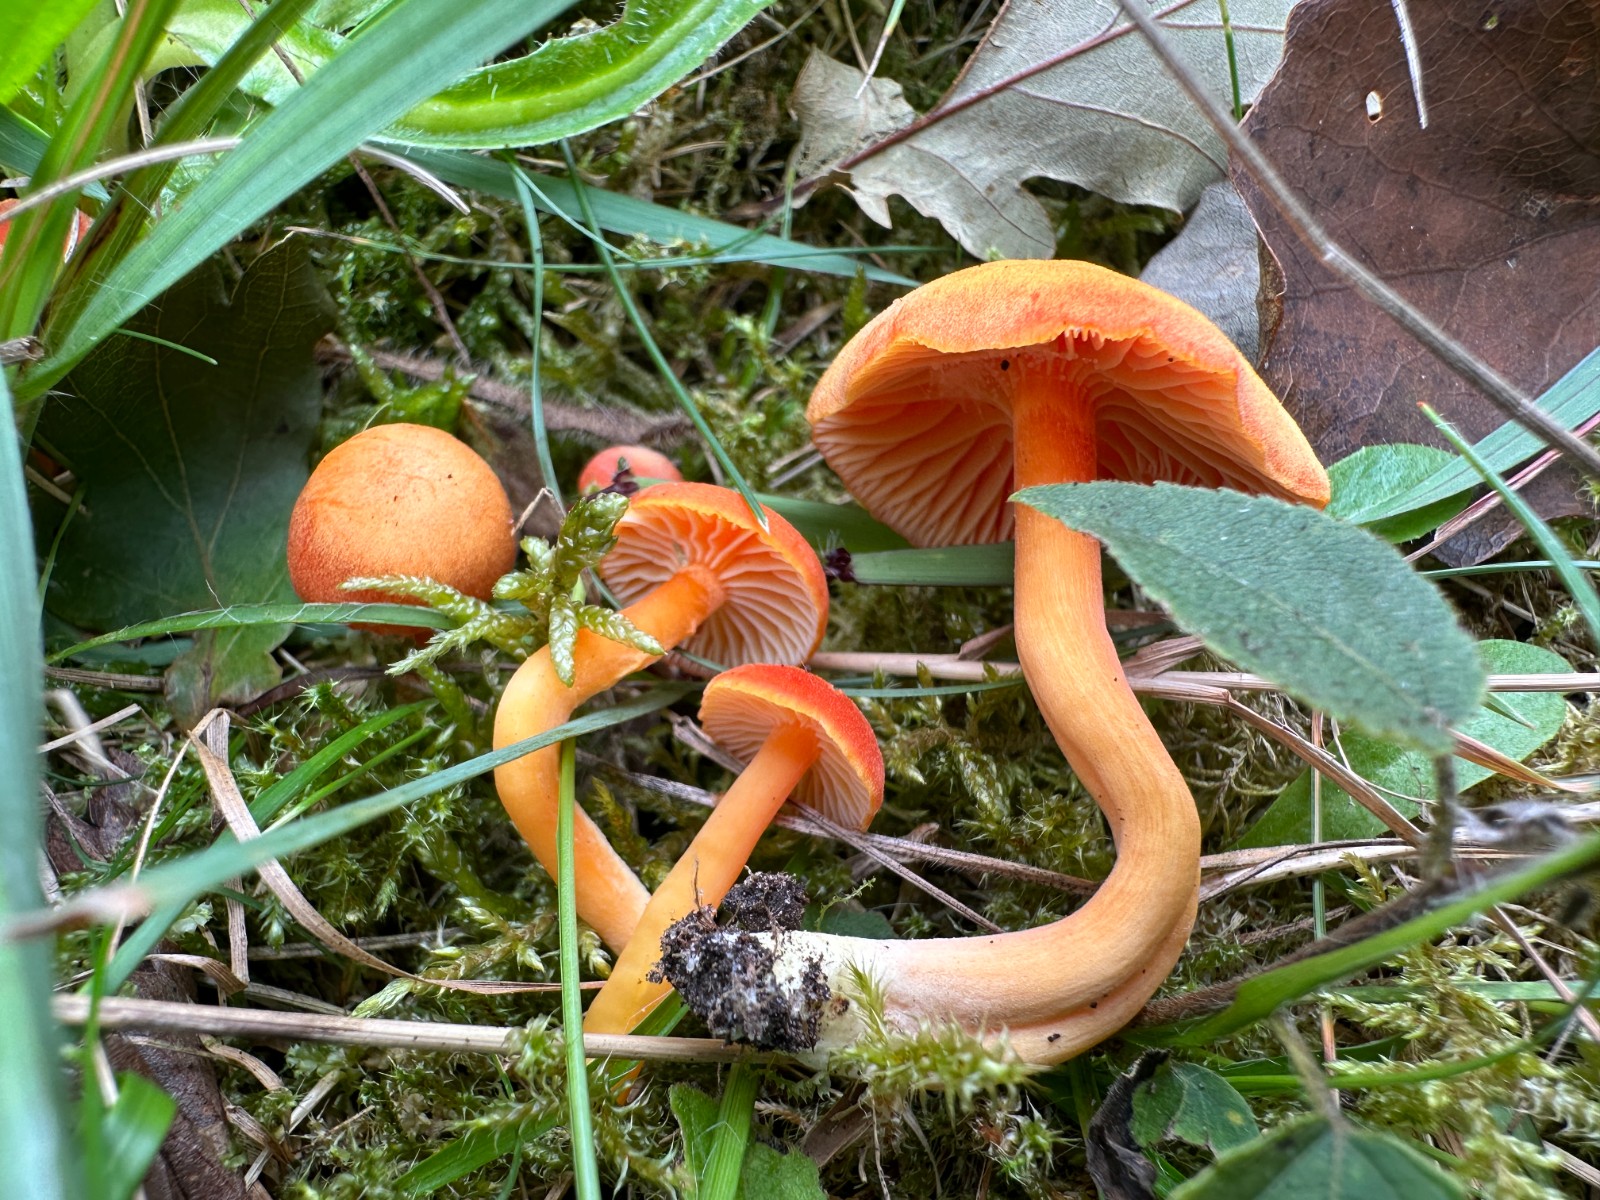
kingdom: Fungi
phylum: Basidiomycota
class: Agaricomycetes
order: Agaricales
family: Hygrophoraceae
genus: Hygrocybe
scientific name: Hygrocybe reidii
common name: honning-vokshat
